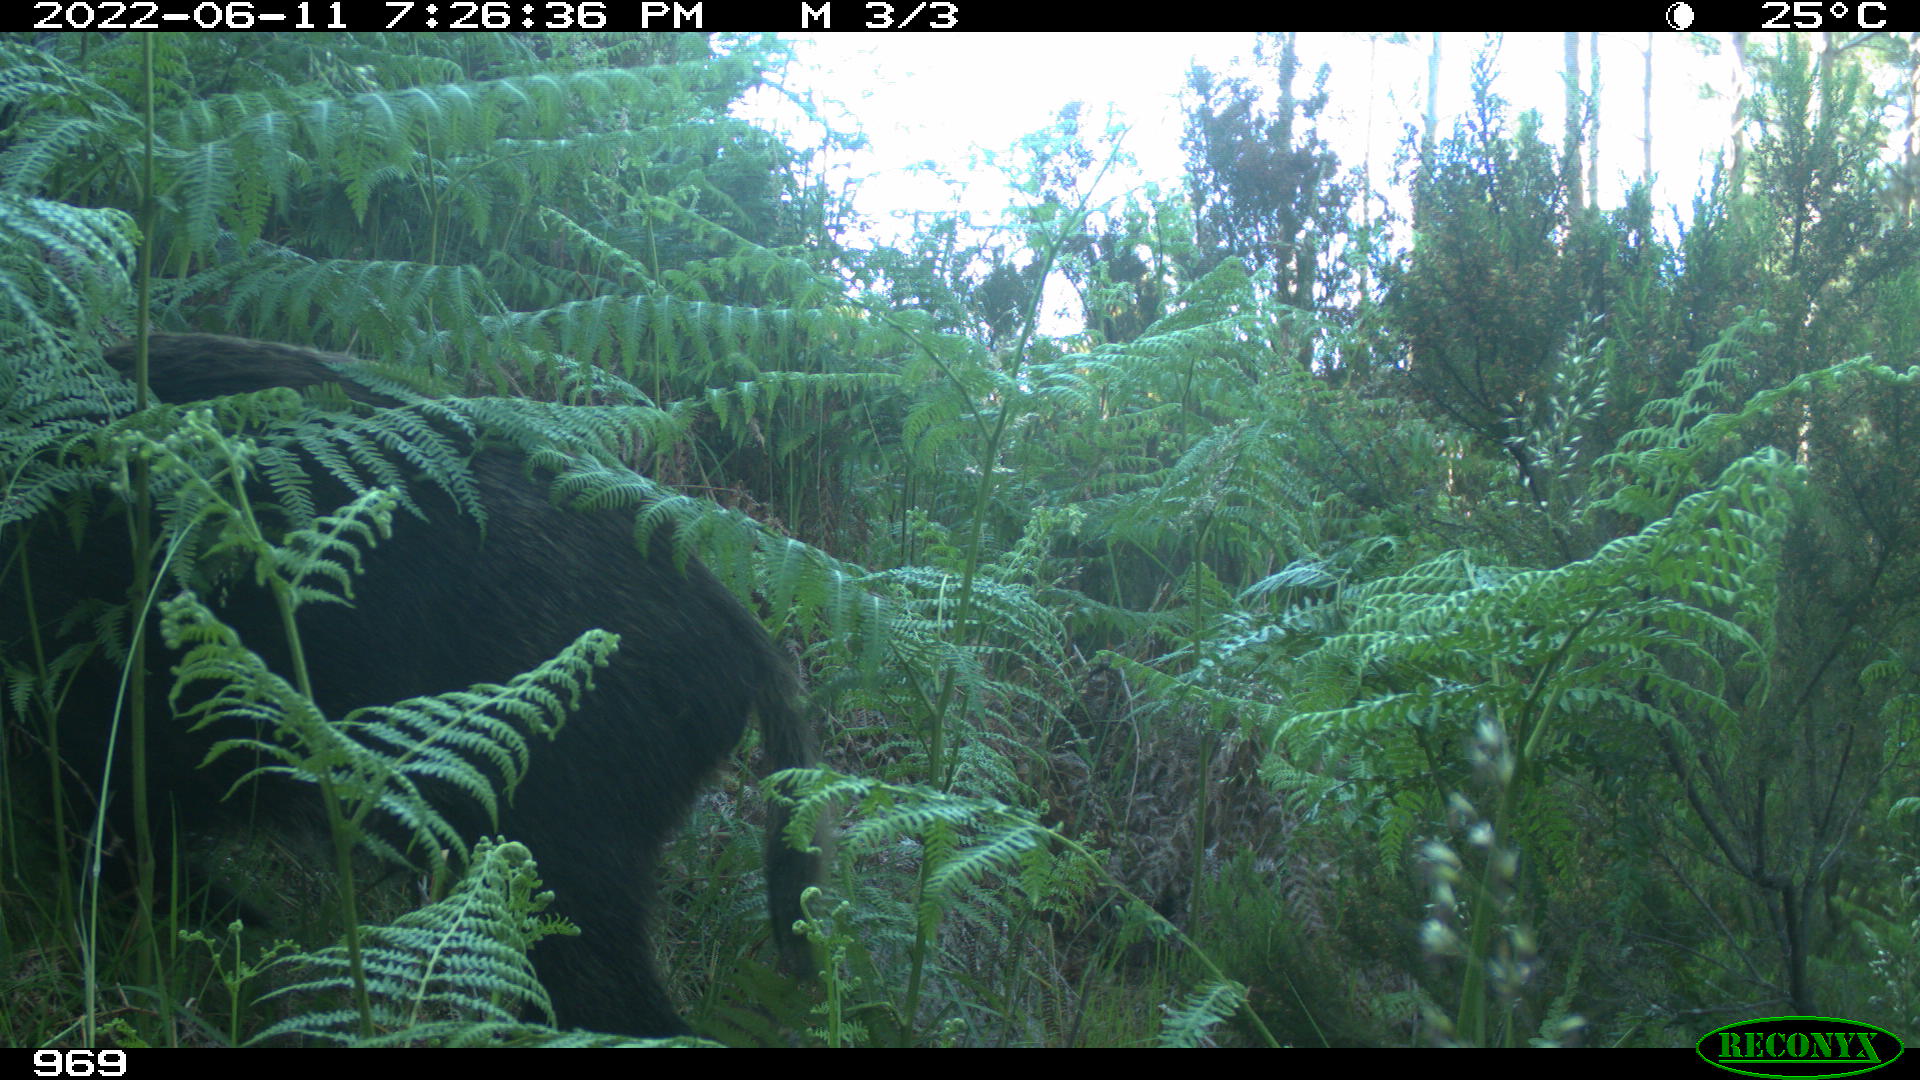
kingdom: Animalia
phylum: Chordata
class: Mammalia
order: Artiodactyla
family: Suidae
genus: Sus
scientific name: Sus scrofa
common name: Wild boar
